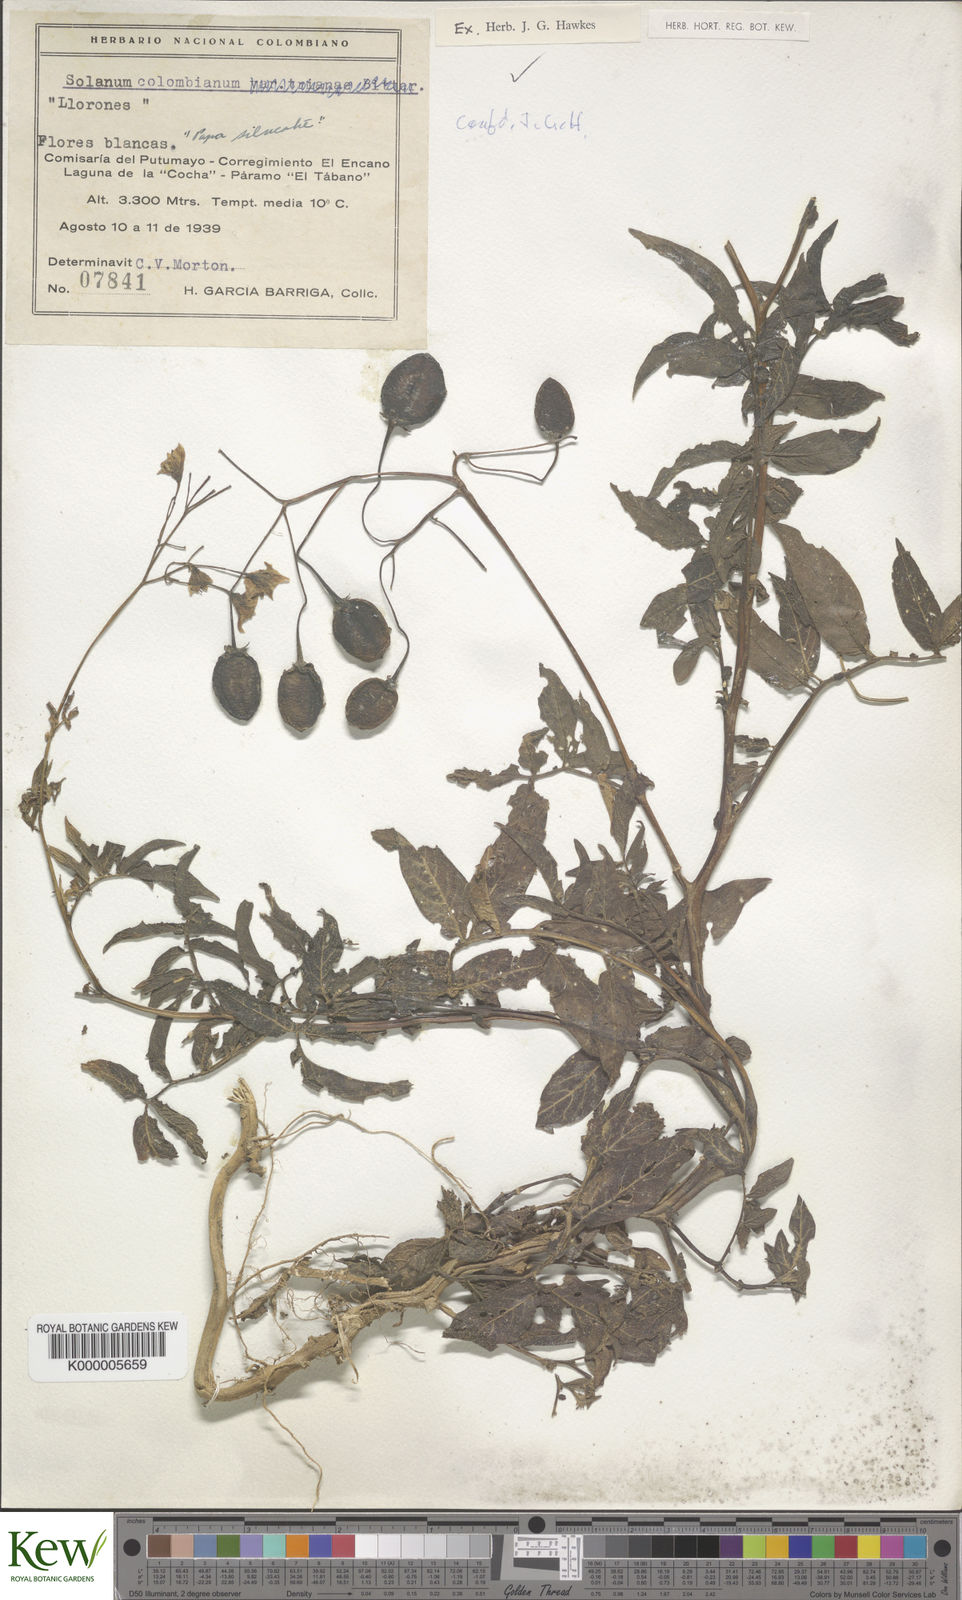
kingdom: Plantae
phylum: Tracheophyta
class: Magnoliopsida
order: Solanales
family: Solanaceae
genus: Solanum
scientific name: Solanum colombianum
